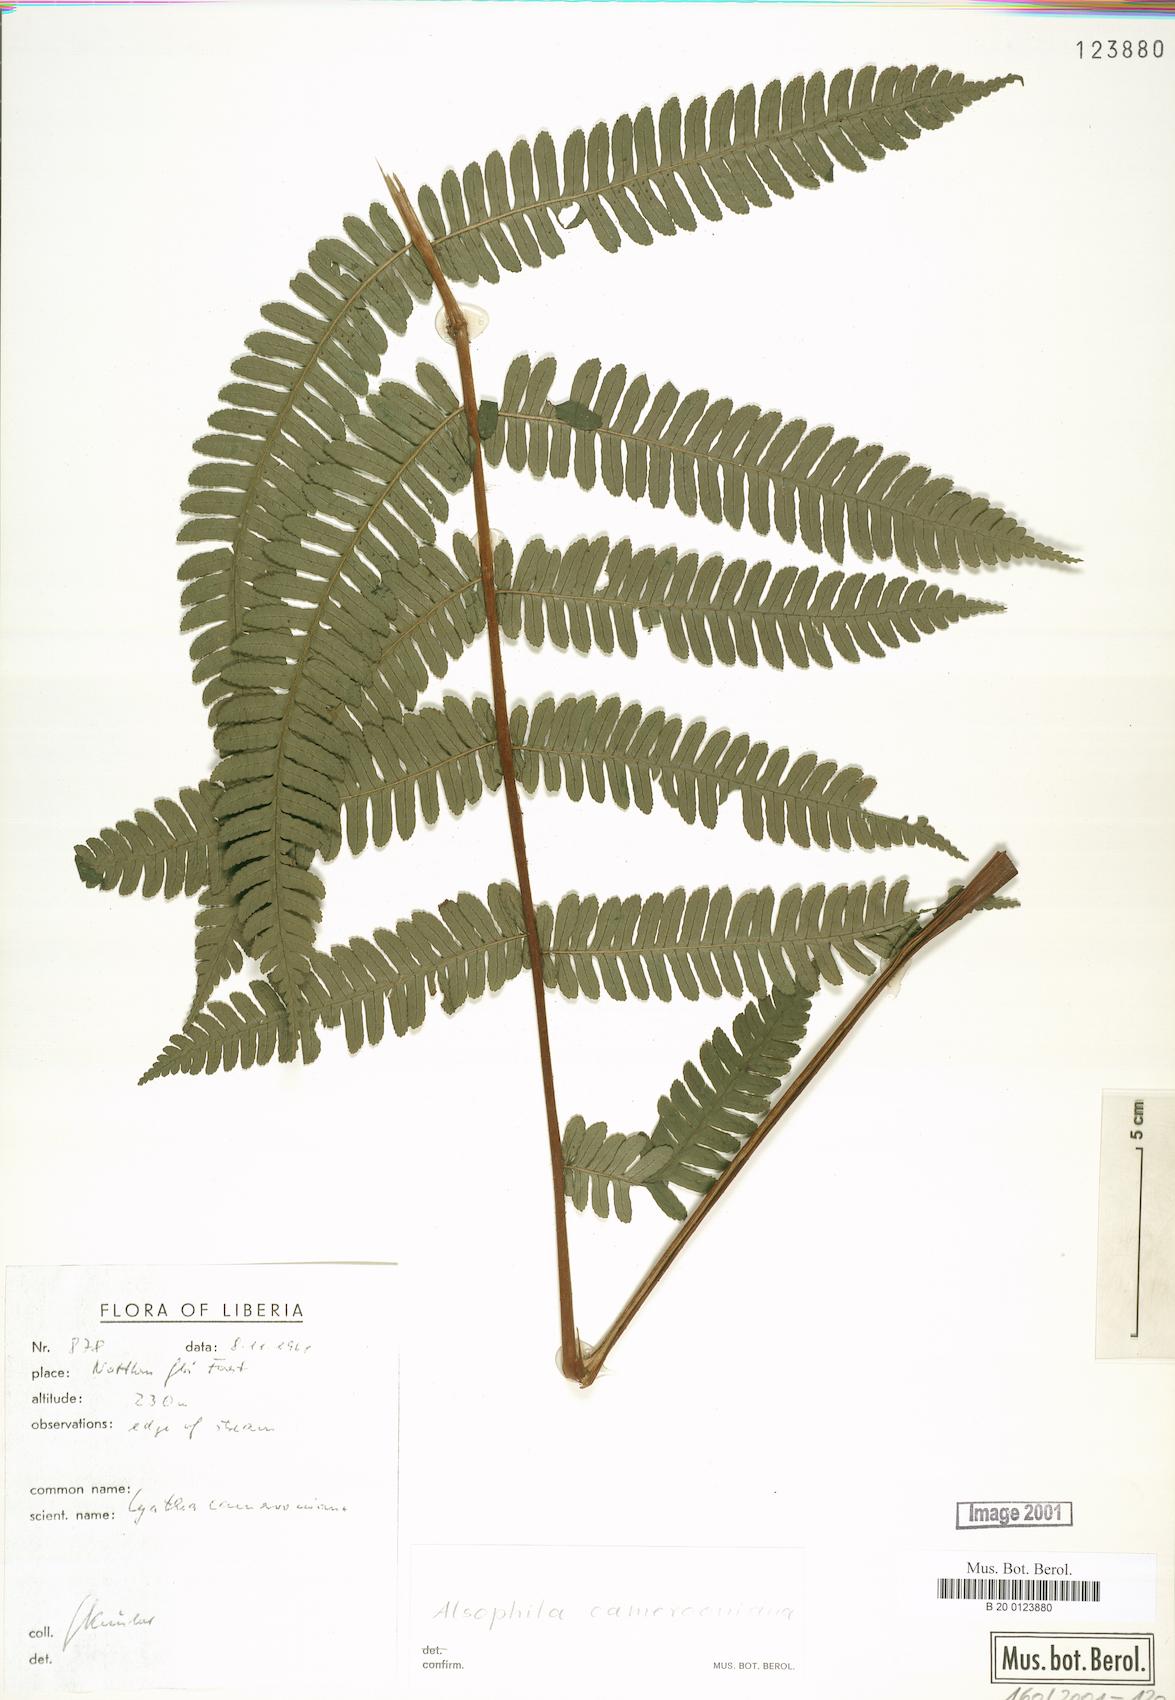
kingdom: Plantae
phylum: Tracheophyta
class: Polypodiopsida
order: Cyatheales
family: Cyatheaceae
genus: Alsophila
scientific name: Alsophila camerooniana
